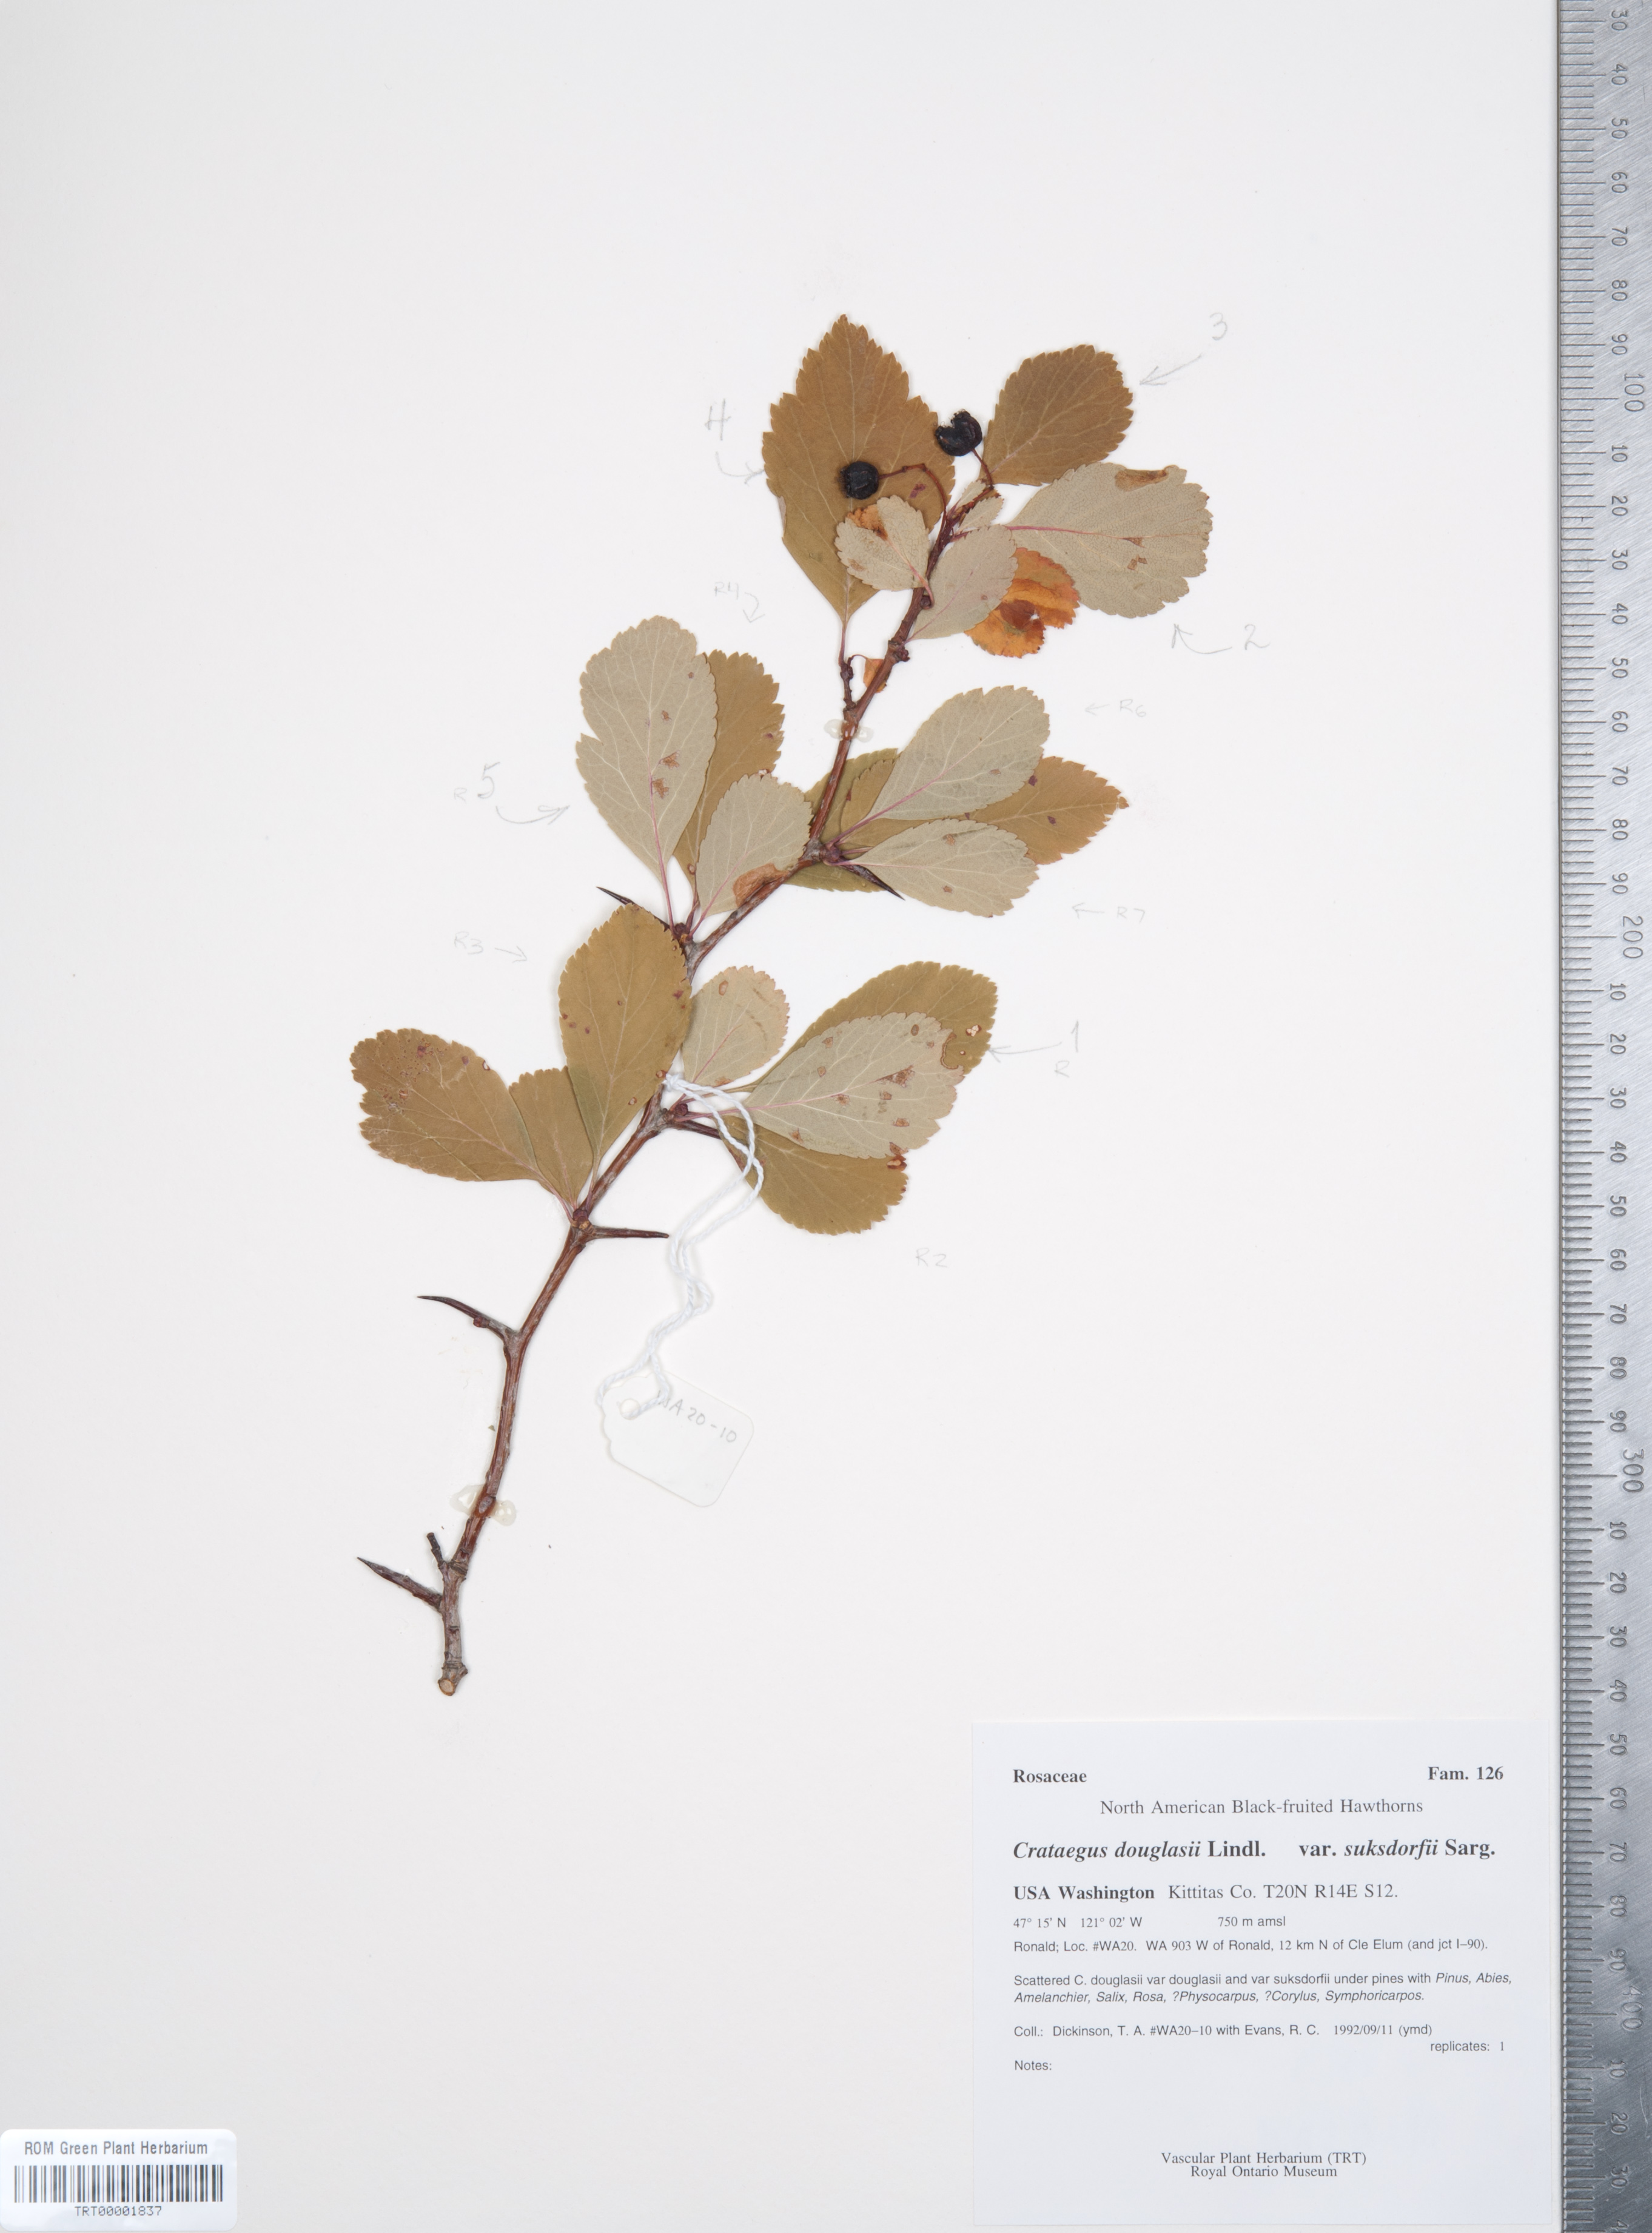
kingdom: Plantae
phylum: Tracheophyta
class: Magnoliopsida
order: Rosales
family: Rosaceae
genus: Crataegus
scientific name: Crataegus gaylussacia
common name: Huckleberry hawthorn
